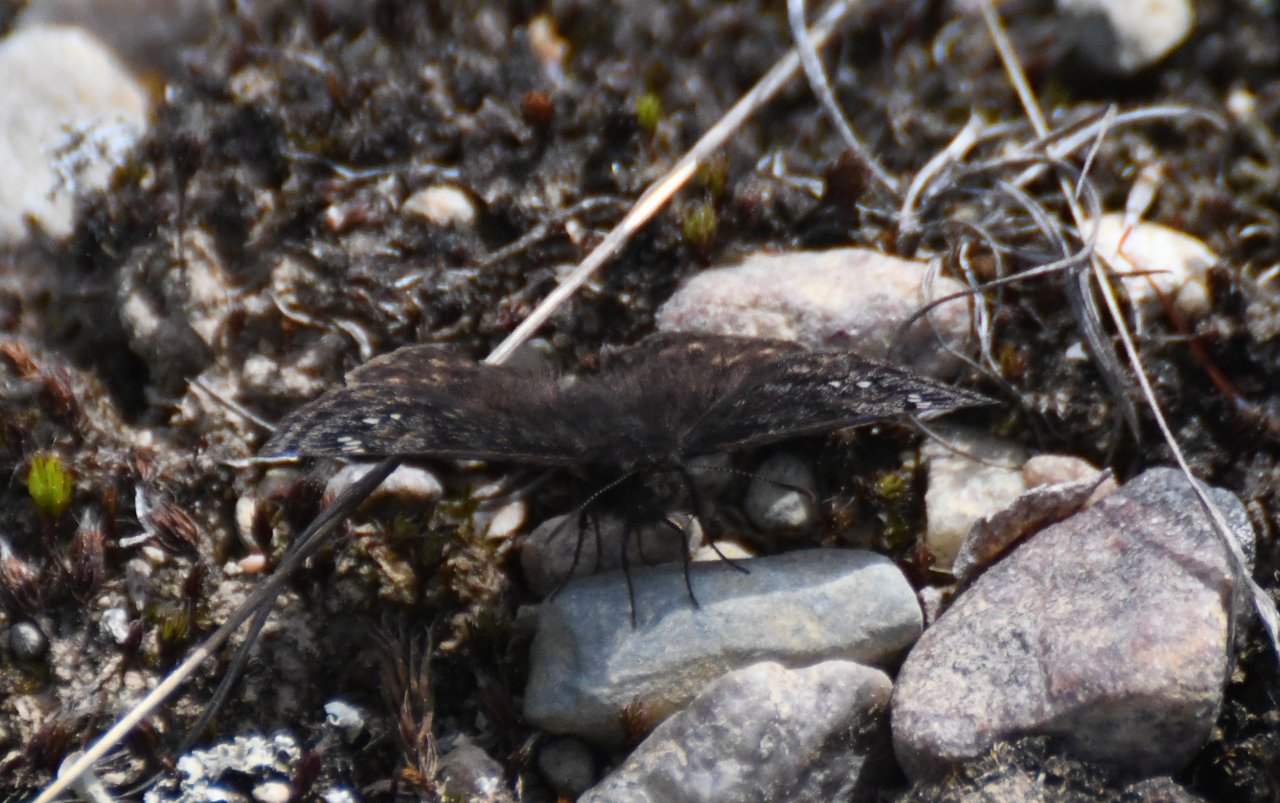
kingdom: Animalia
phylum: Arthropoda
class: Insecta
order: Lepidoptera
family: Hesperiidae
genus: Gesta
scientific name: Gesta
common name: Juvenal's Duskywing
